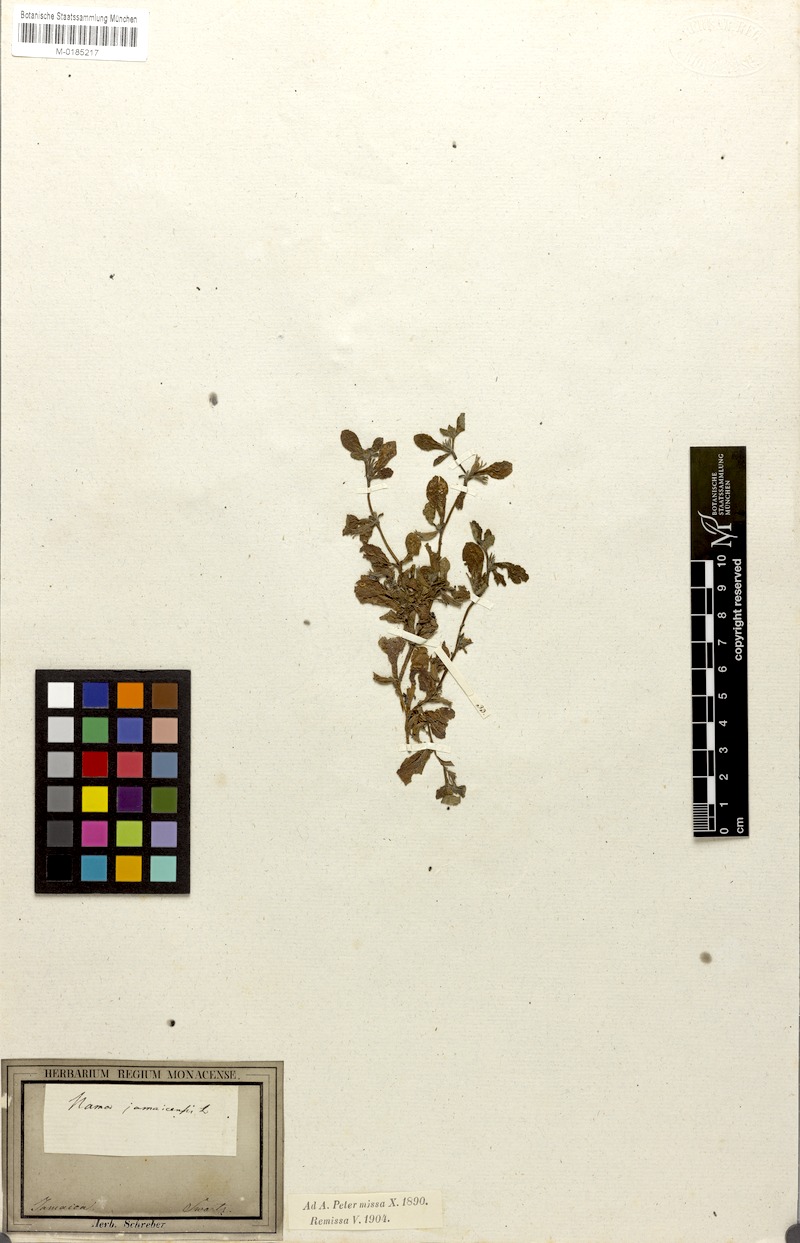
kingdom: Plantae
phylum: Tracheophyta
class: Magnoliopsida
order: Boraginales
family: Namaceae
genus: Nama
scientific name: Nama jamaicensis
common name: Jamaicanweed
